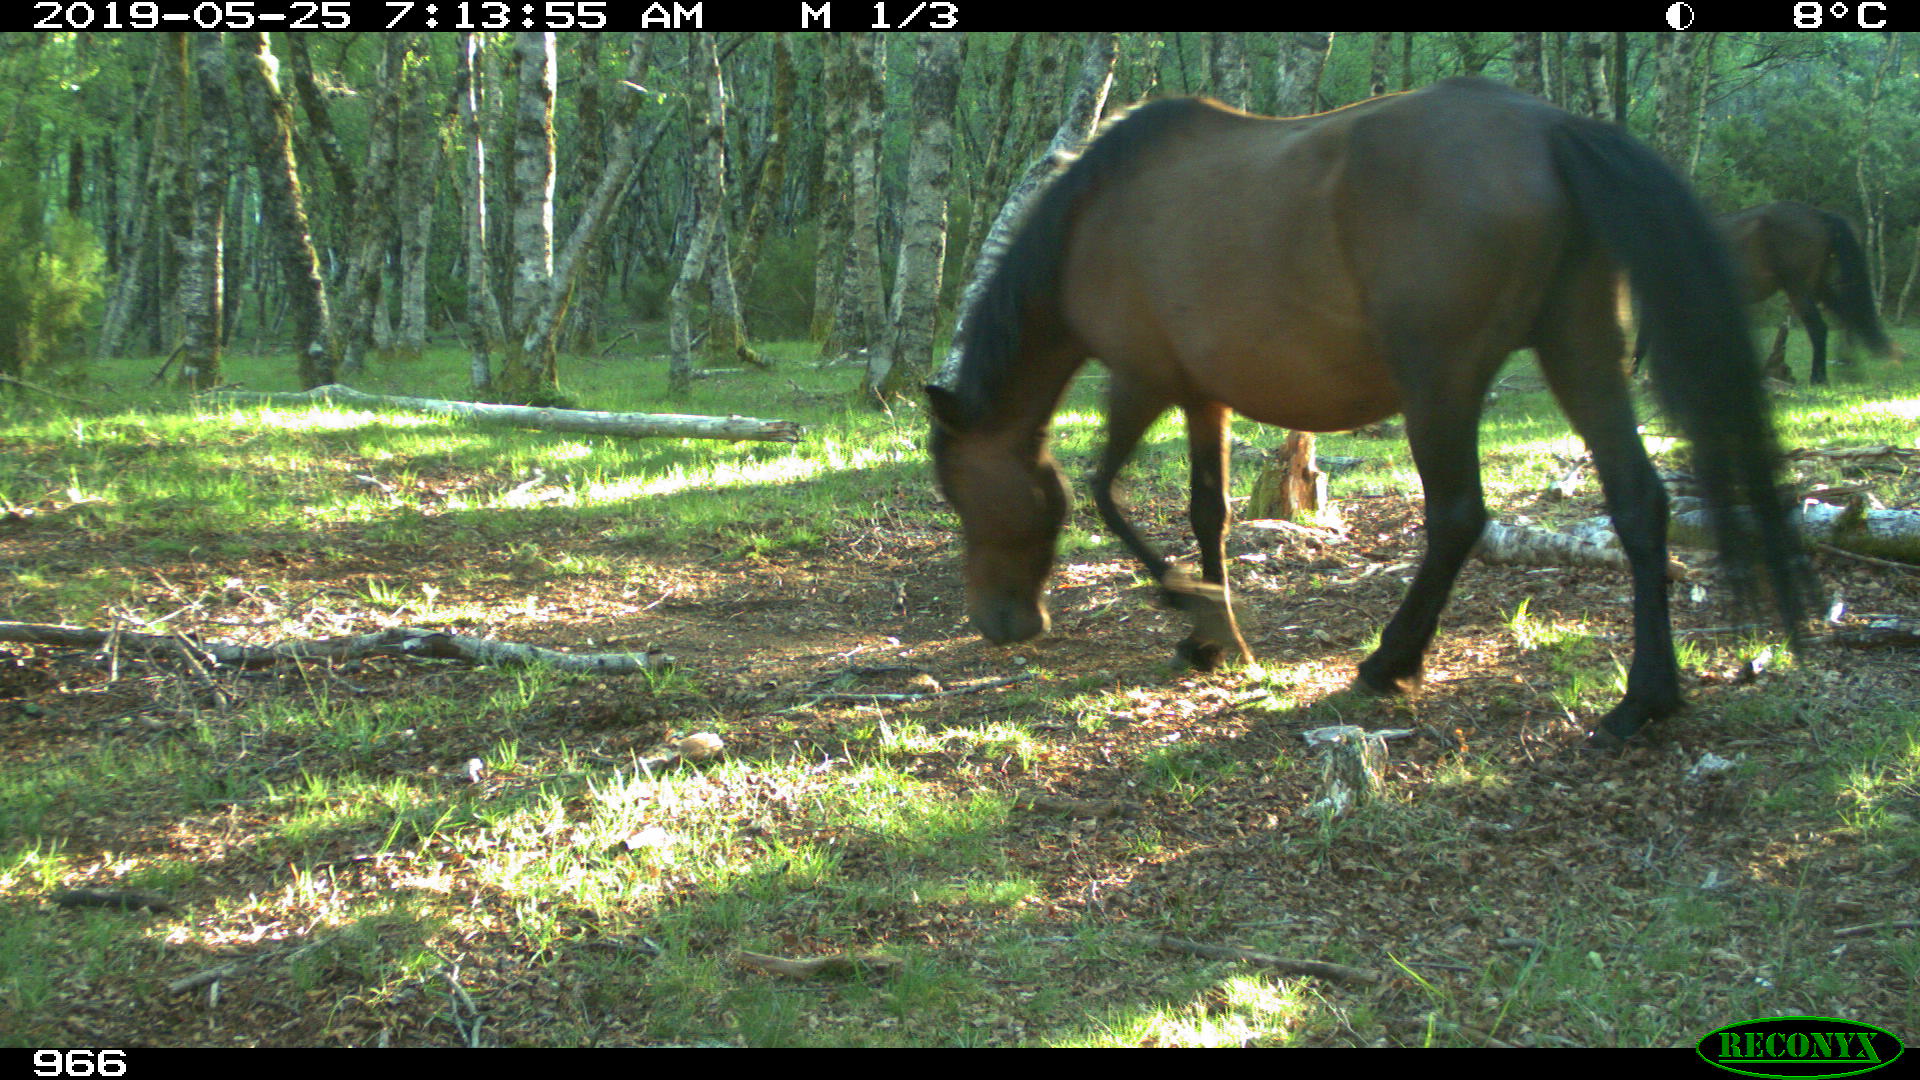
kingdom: Animalia
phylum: Chordata
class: Mammalia
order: Perissodactyla
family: Equidae
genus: Equus
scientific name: Equus caballus
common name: Horse
